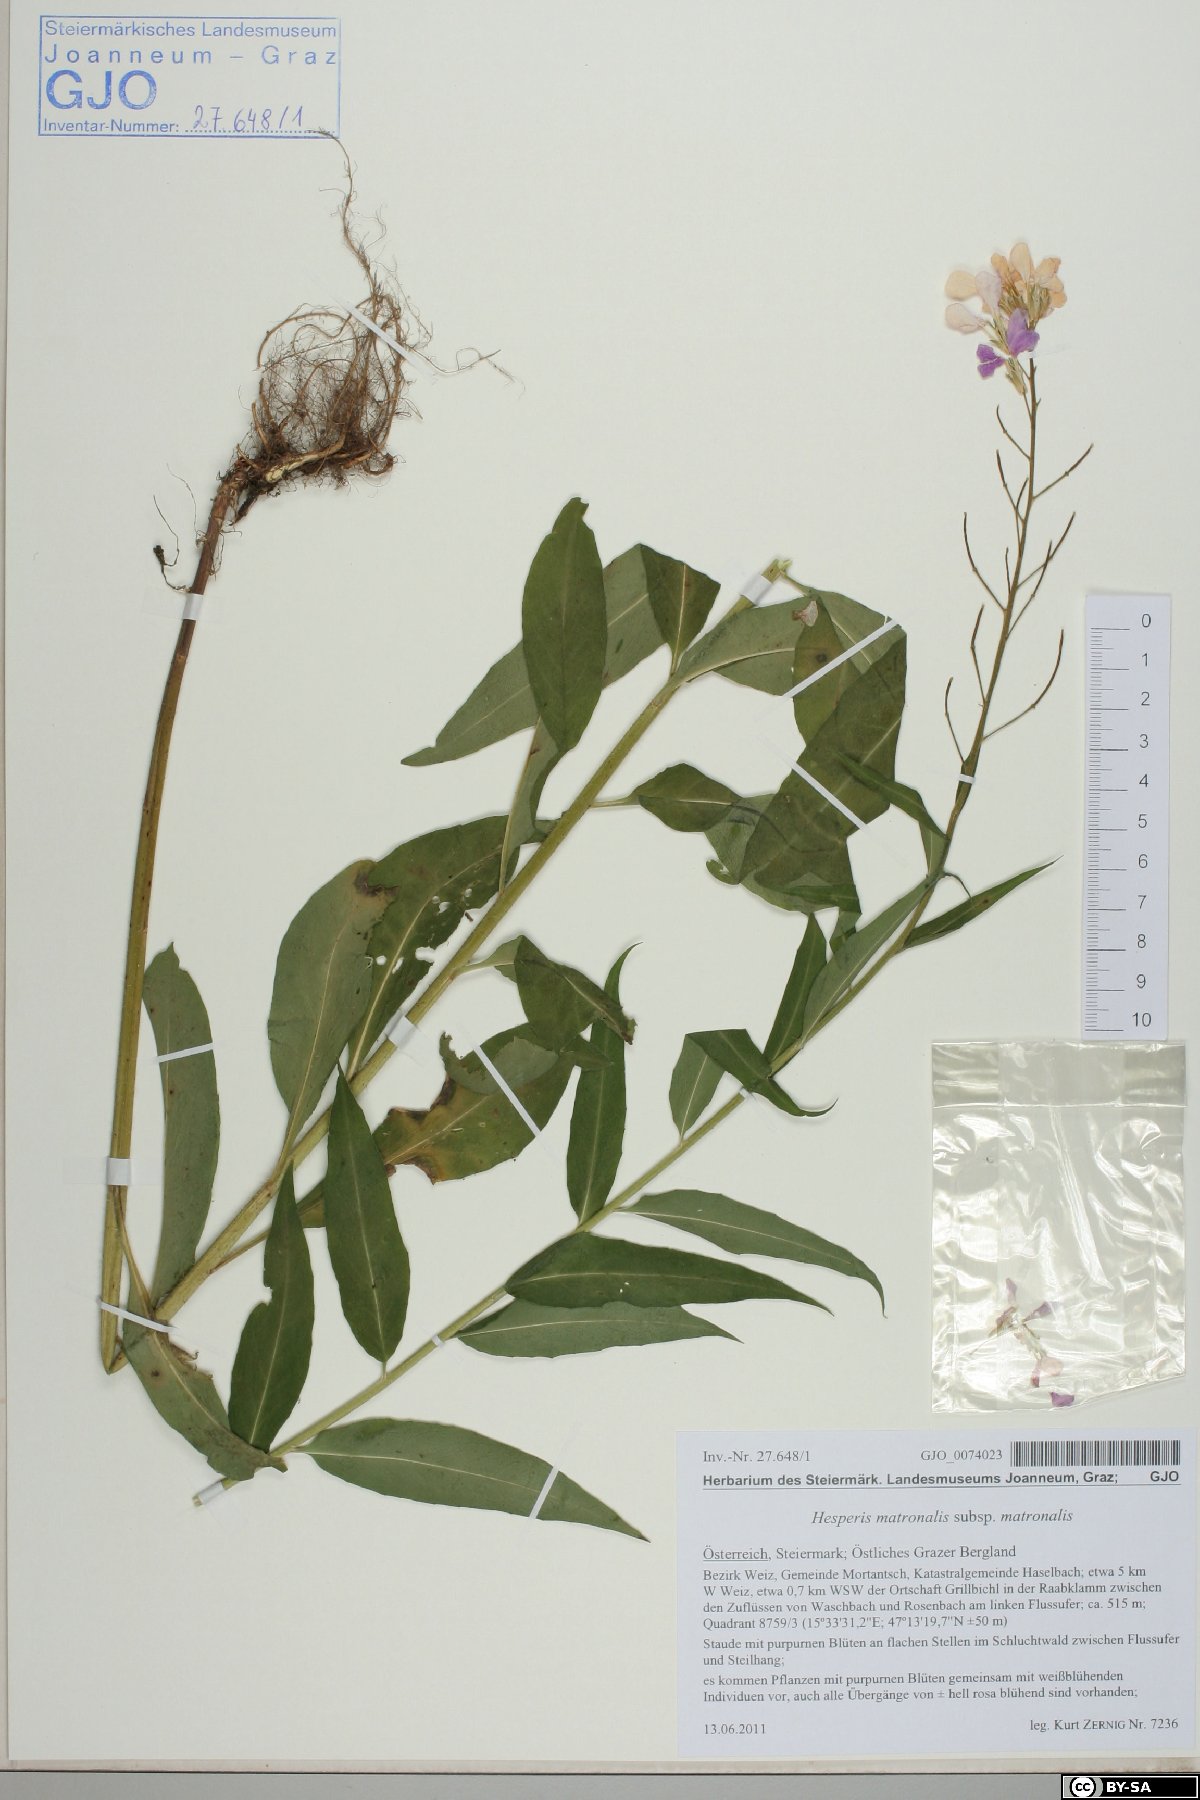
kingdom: Plantae
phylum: Tracheophyta
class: Magnoliopsida
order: Brassicales
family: Brassicaceae
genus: Hesperis
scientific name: Hesperis matronalis
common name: Dame's-violet
